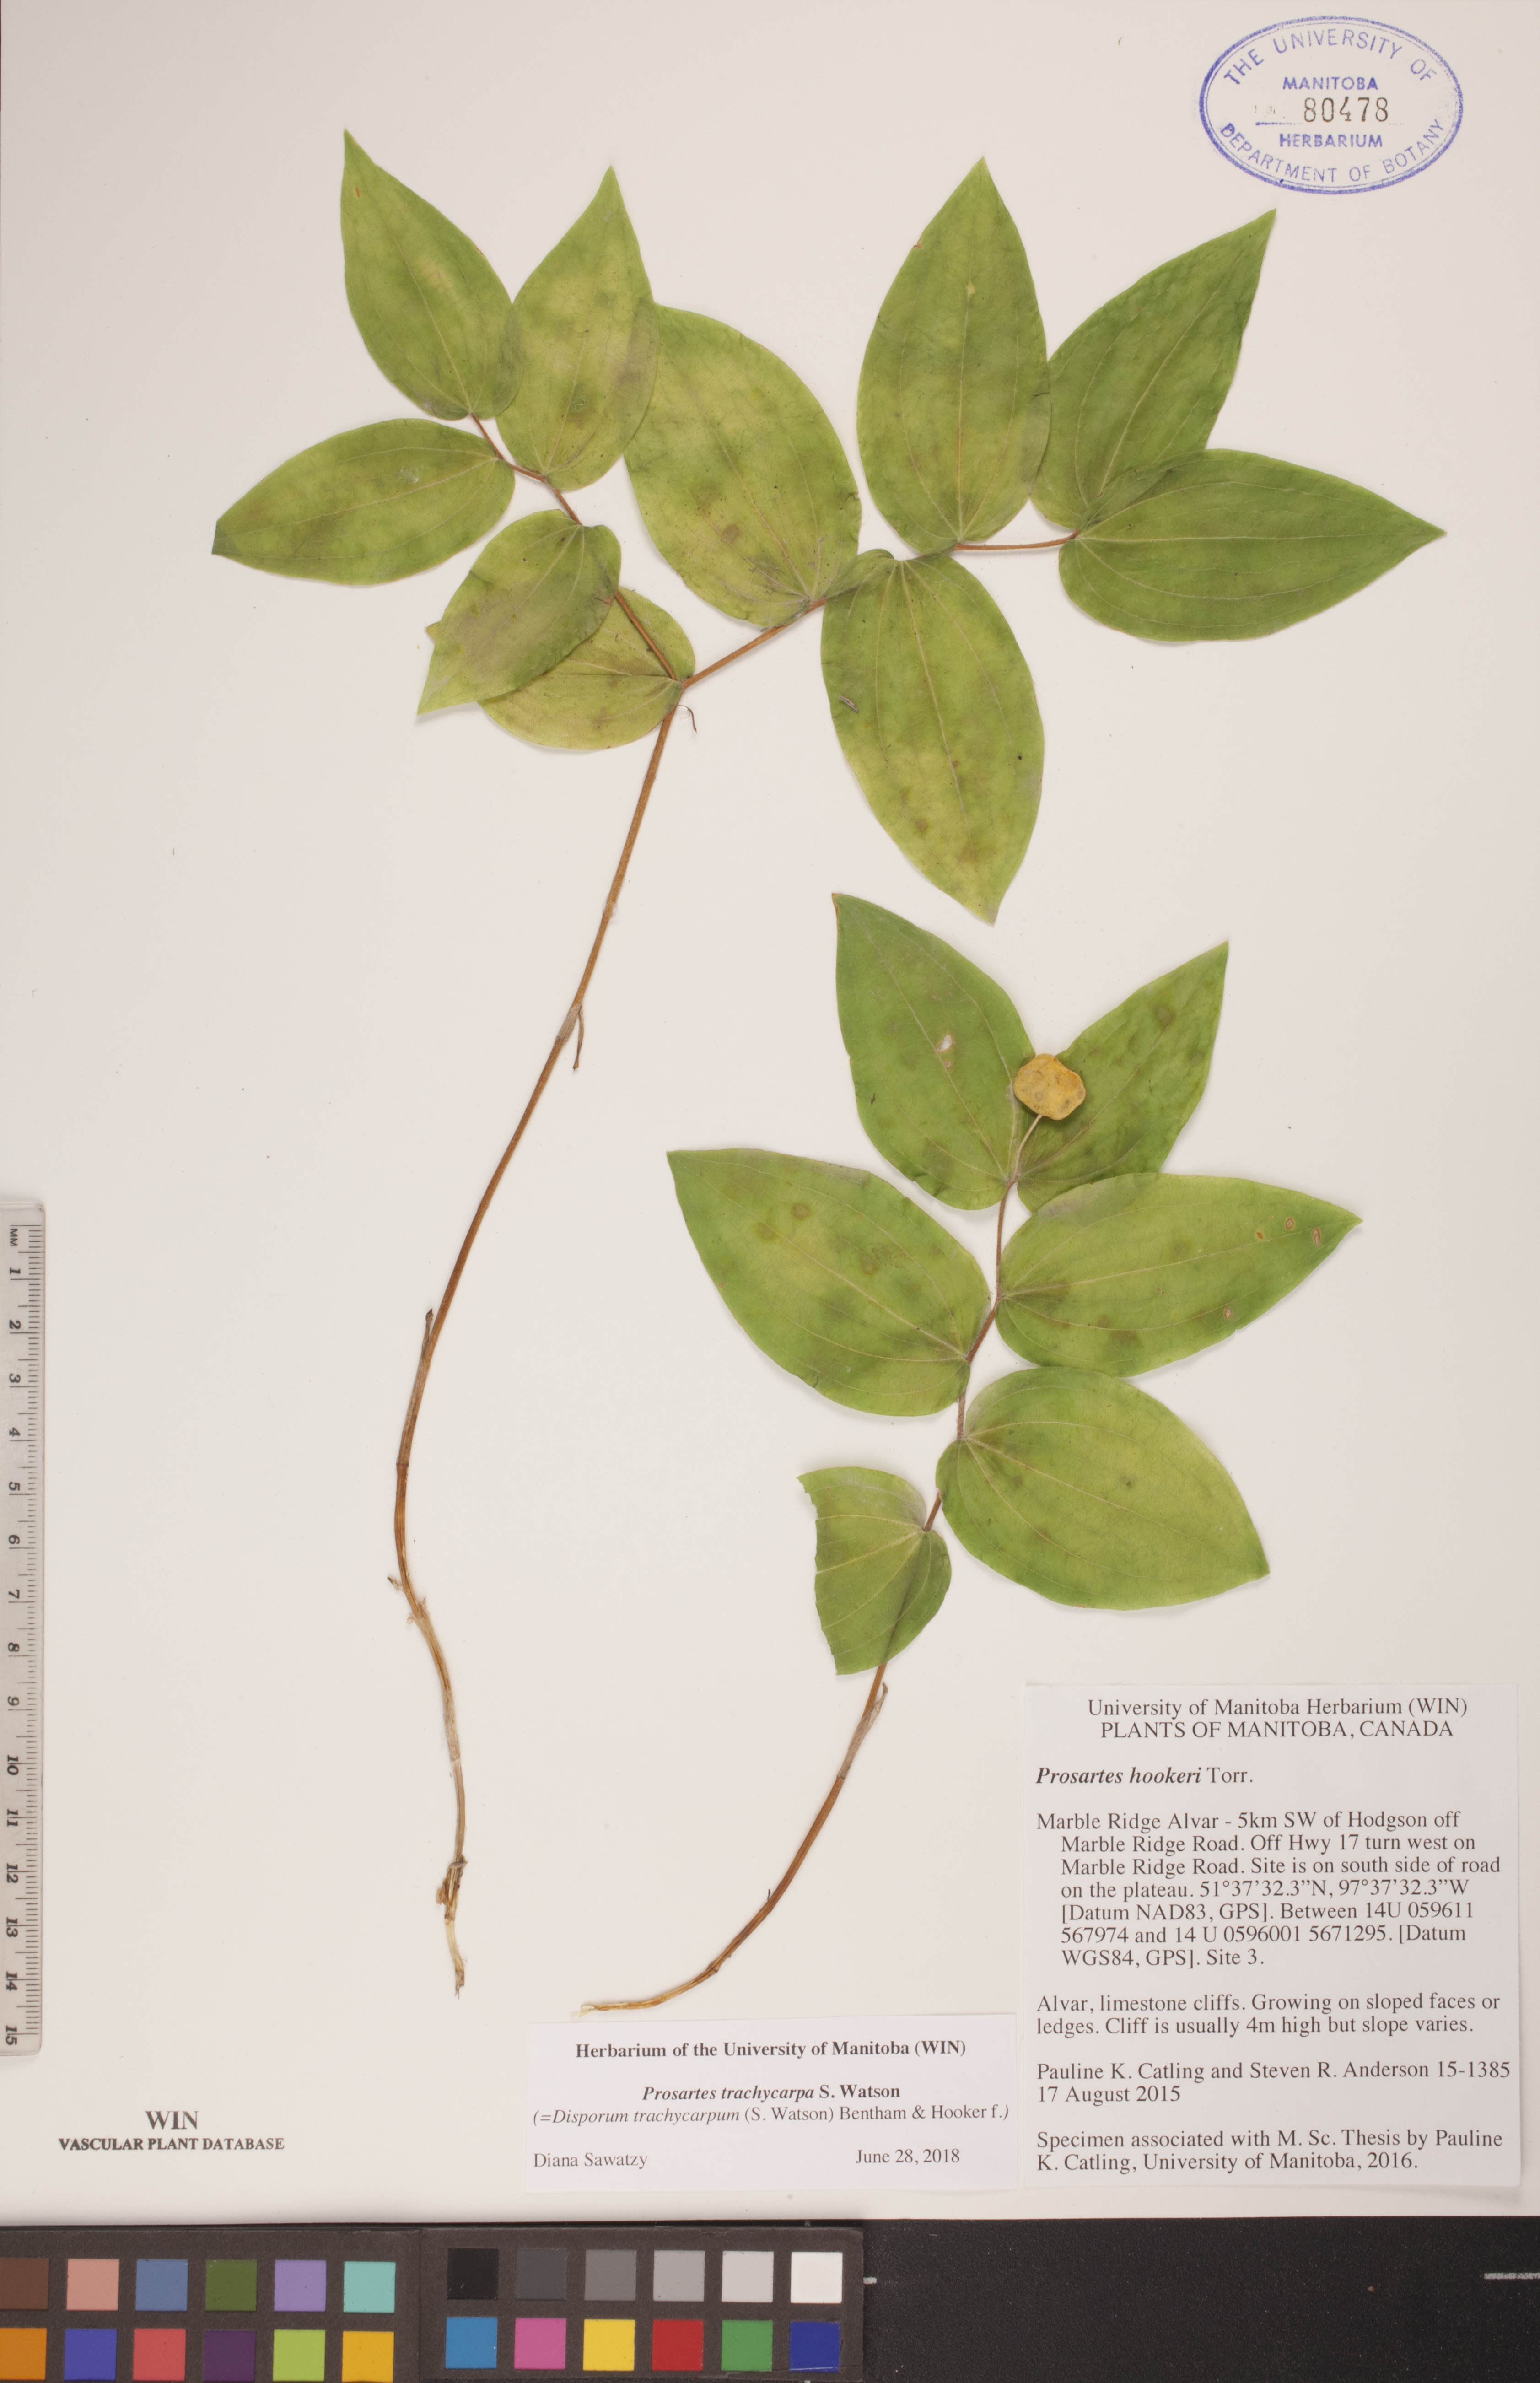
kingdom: Plantae
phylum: Tracheophyta
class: Liliopsida
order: Liliales
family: Liliaceae
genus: Prosartes
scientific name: Prosartes trachycarpa
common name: Rough-fruit fairy-bells
